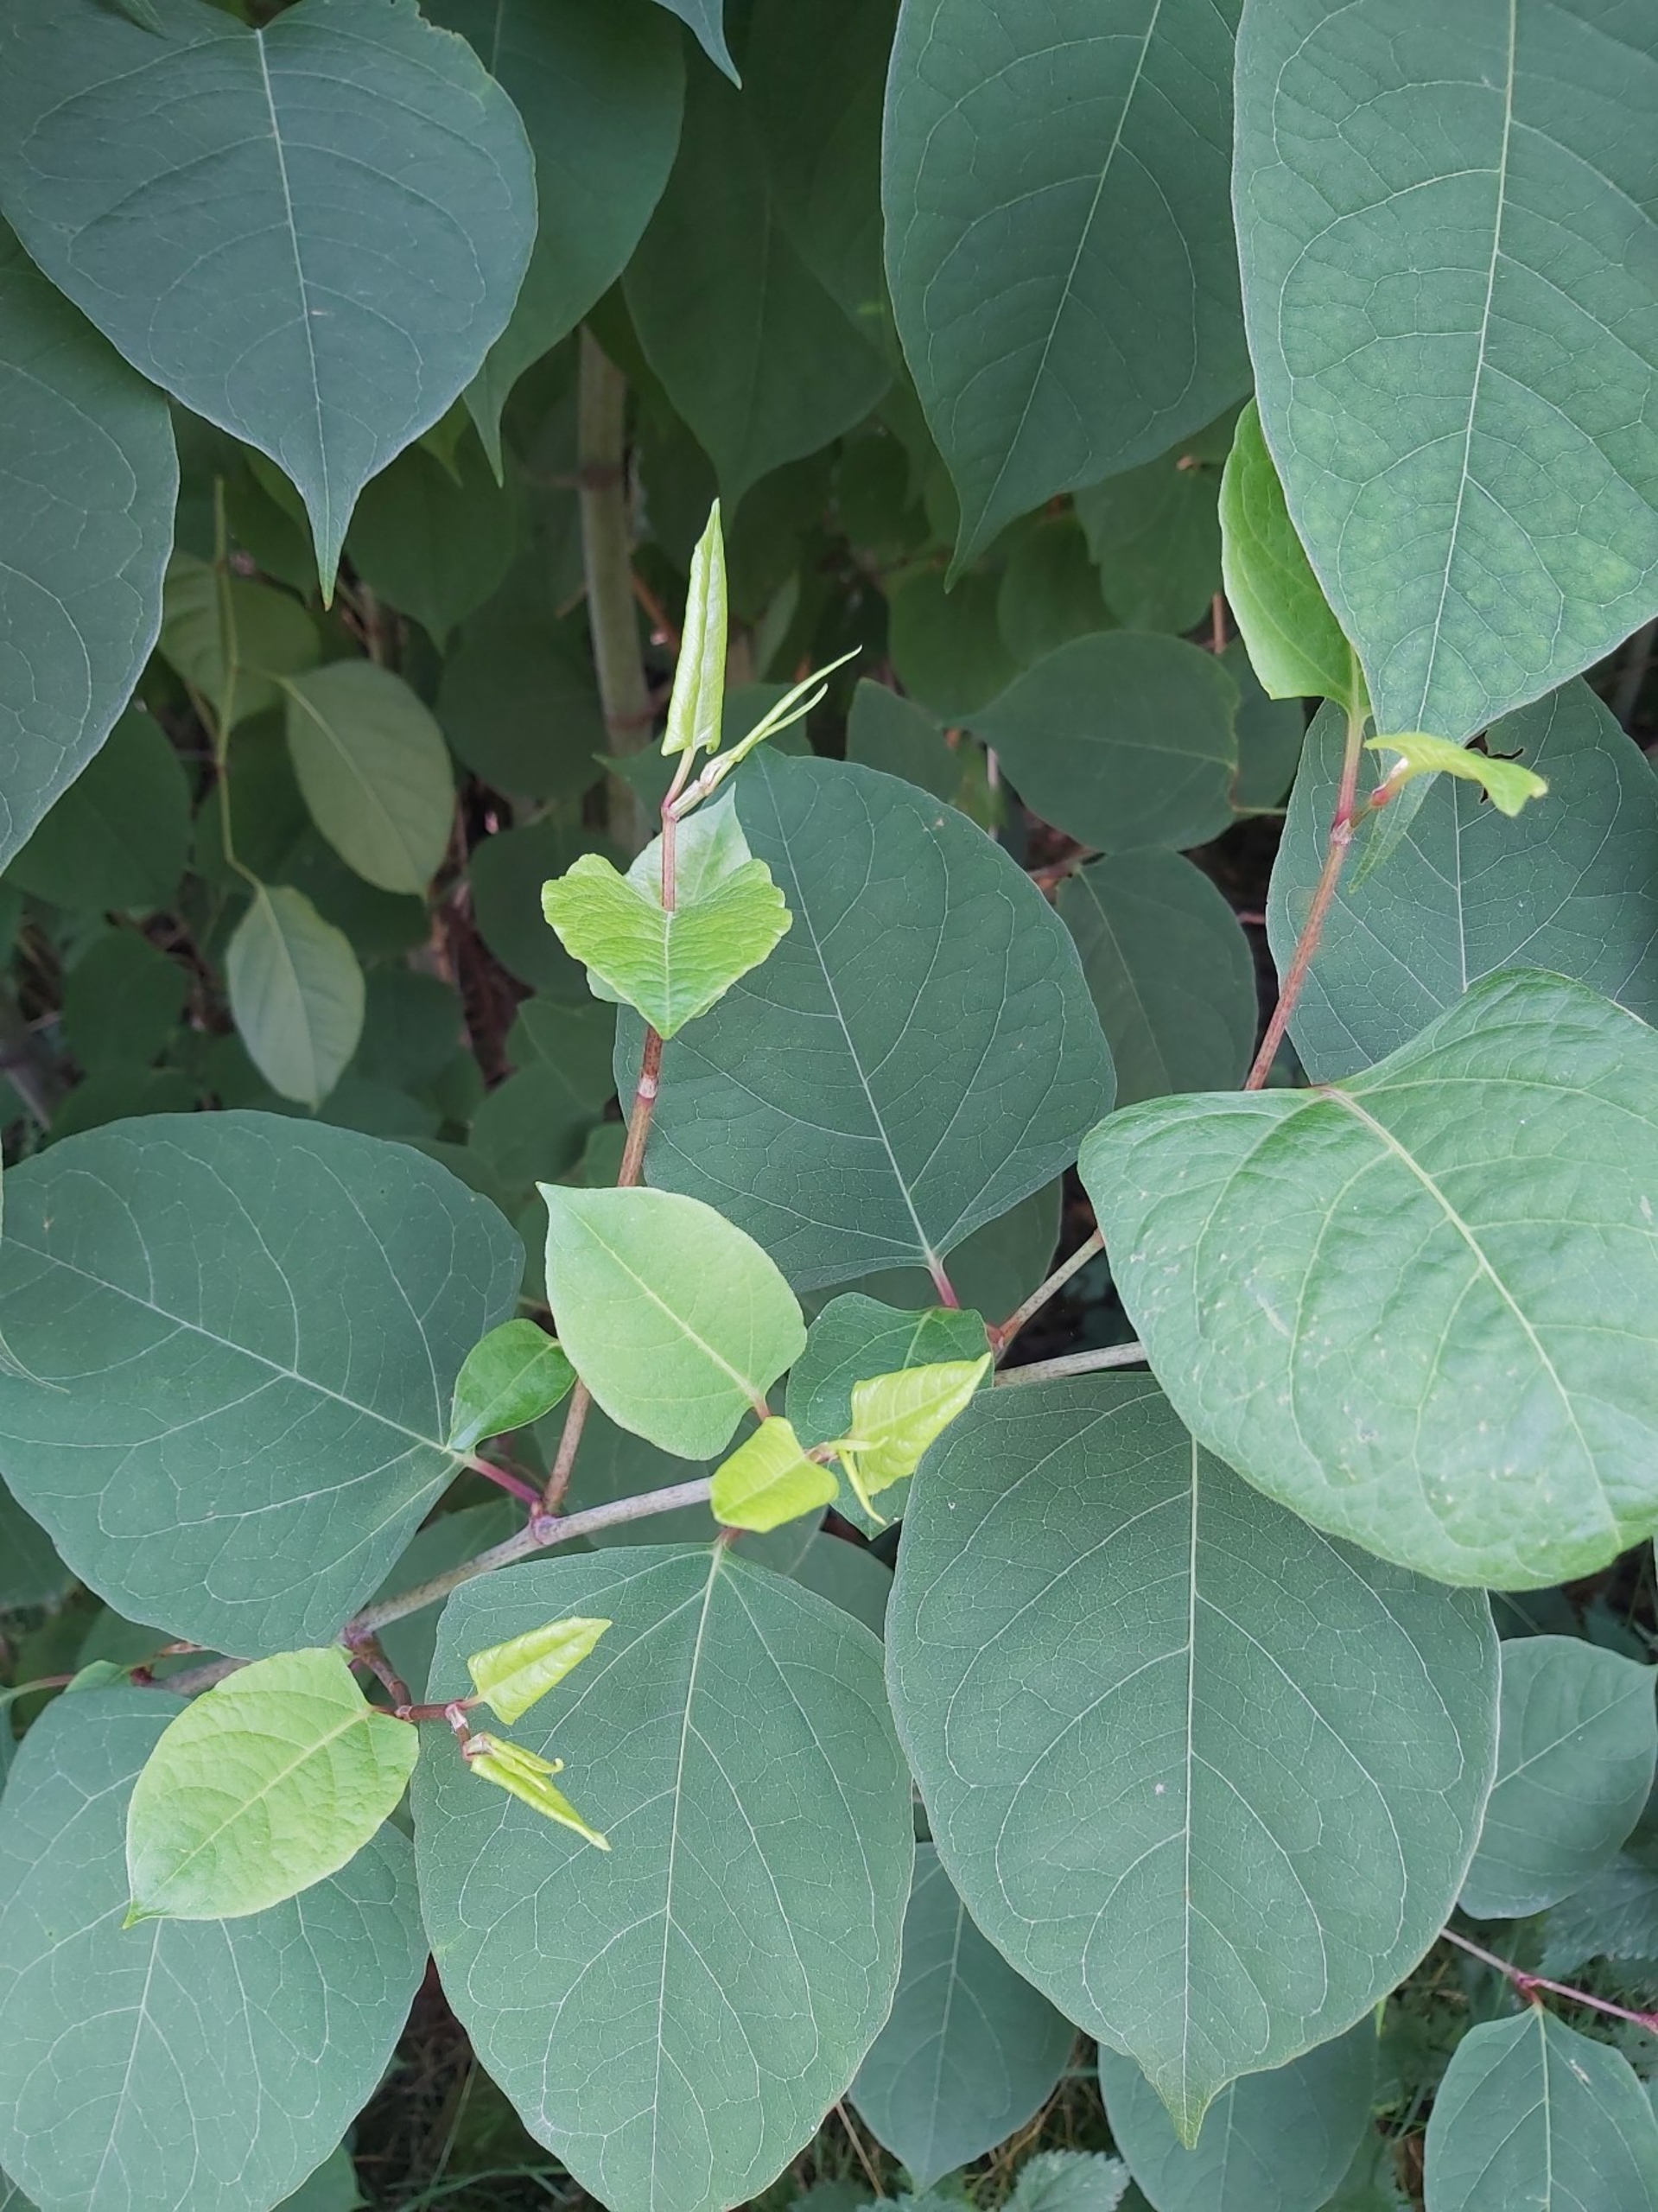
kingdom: Plantae
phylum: Tracheophyta
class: Magnoliopsida
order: Caryophyllales
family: Polygonaceae
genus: Reynoutria
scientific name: Reynoutria japonica
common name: Japan-pileurt
